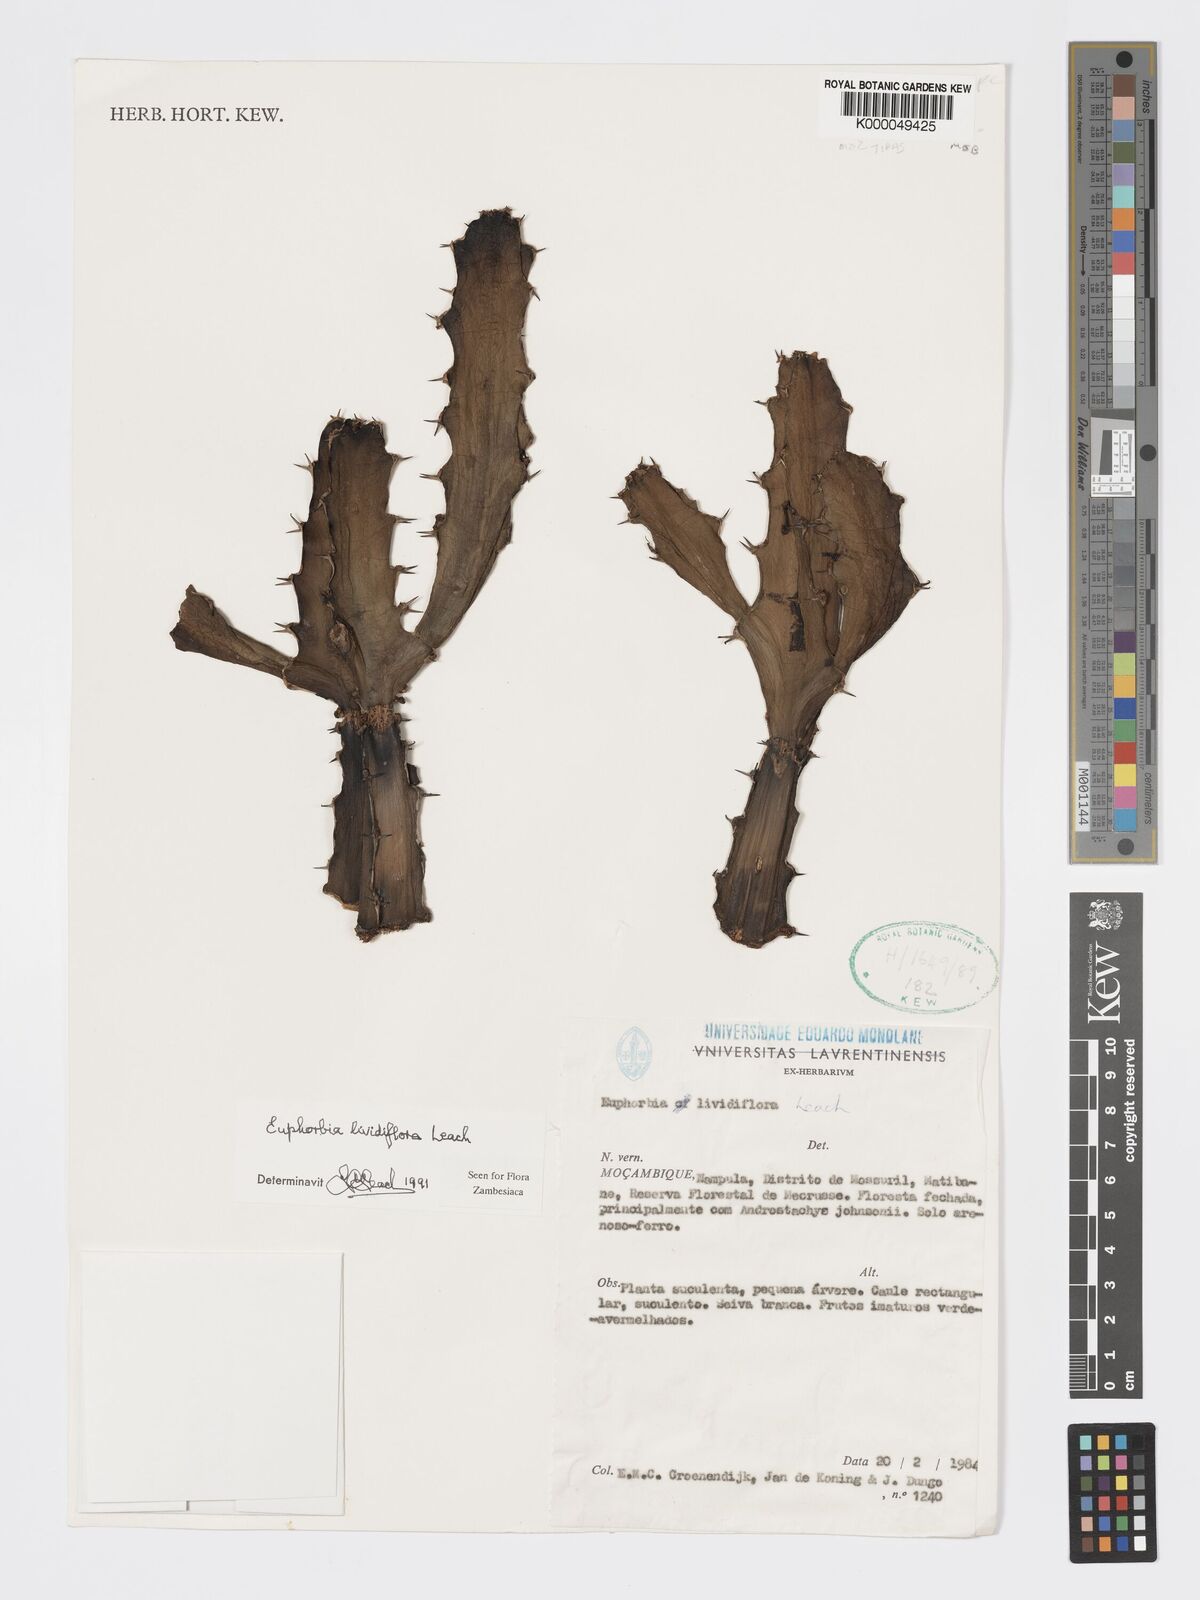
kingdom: Plantae
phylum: Tracheophyta
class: Magnoliopsida
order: Malpighiales
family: Euphorbiaceae
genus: Euphorbia
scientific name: Euphorbia lividiflora
